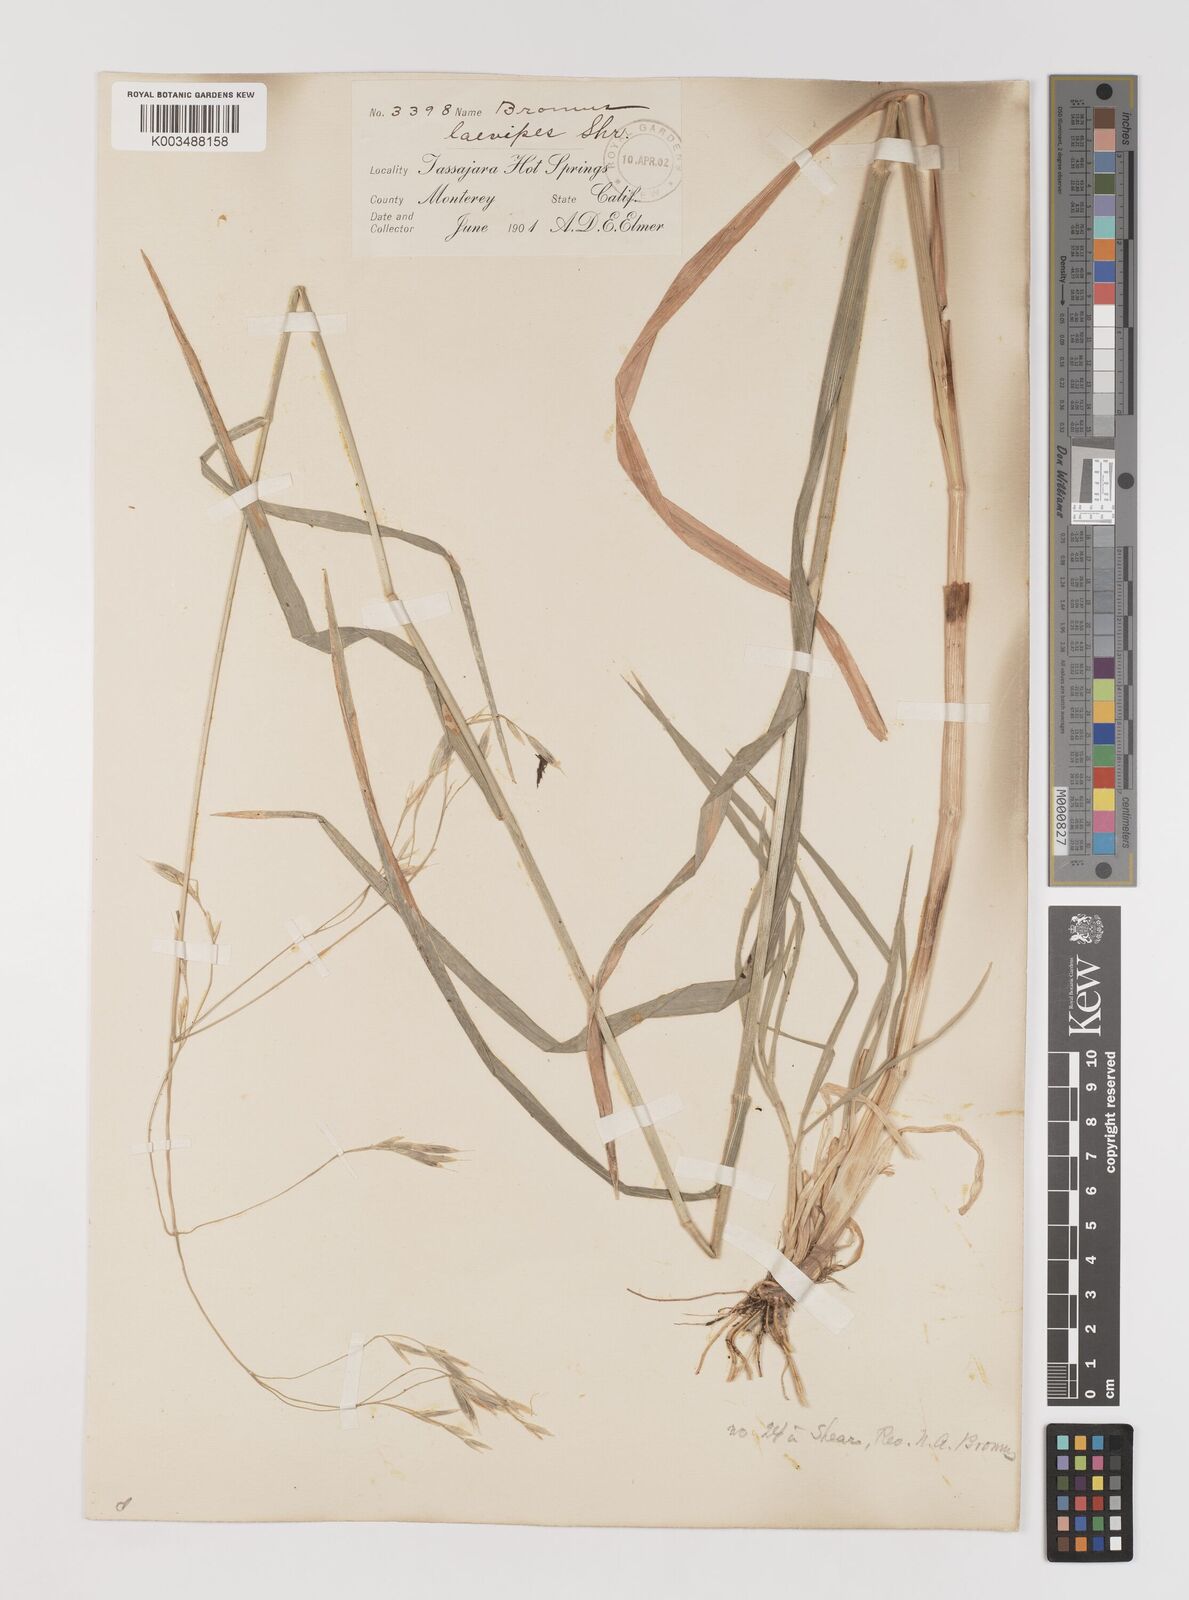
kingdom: Plantae
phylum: Tracheophyta
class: Liliopsida
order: Poales
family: Poaceae
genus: Bromus
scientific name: Bromus laevipes
